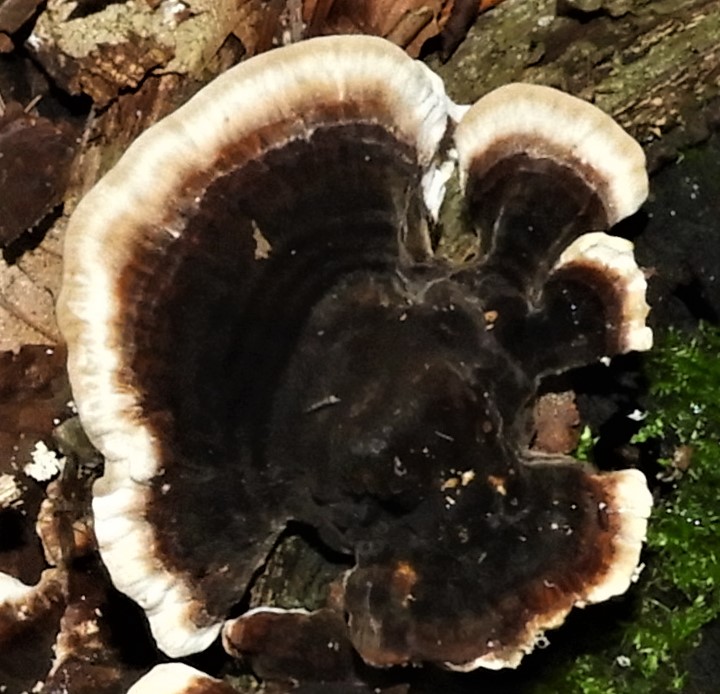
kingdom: Fungi
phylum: Basidiomycota
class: Agaricomycetes
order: Polyporales
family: Phanerochaetaceae
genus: Bjerkandera
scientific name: Bjerkandera adusta
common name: sveden sodporesvamp
